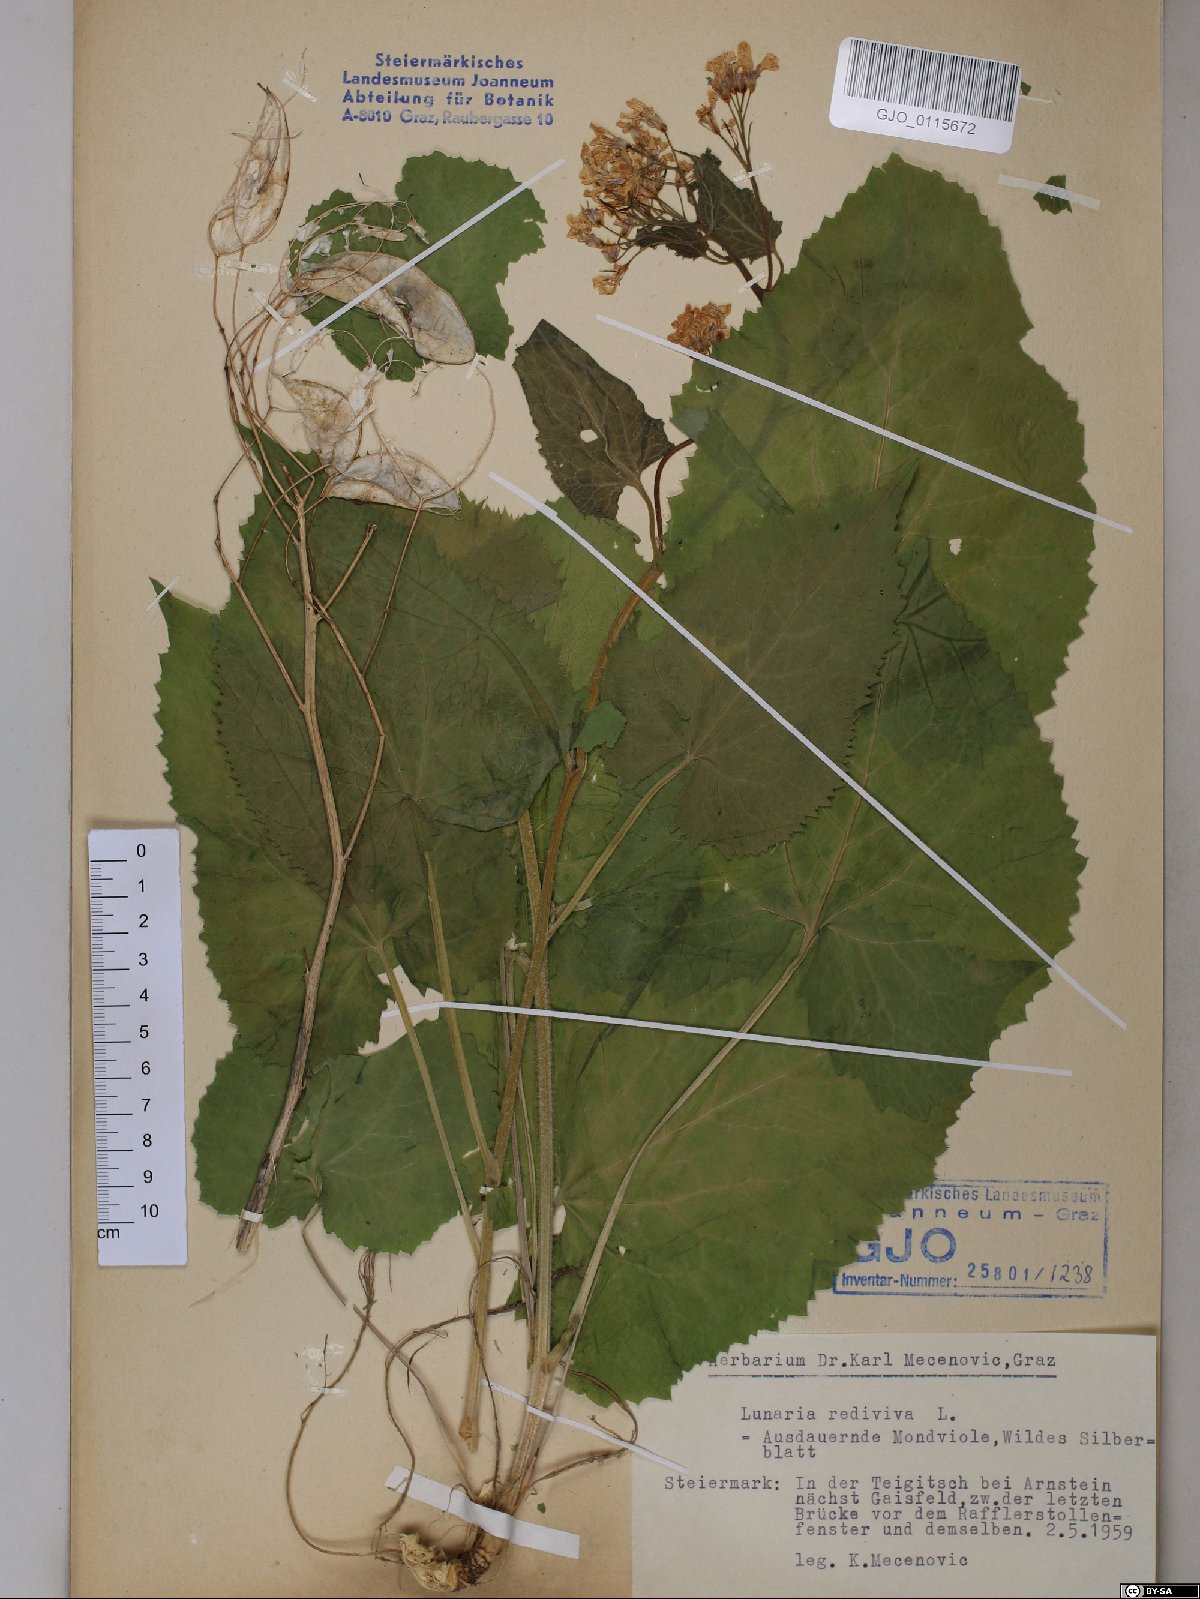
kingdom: Plantae
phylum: Tracheophyta
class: Magnoliopsida
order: Brassicales
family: Brassicaceae
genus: Lunaria
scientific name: Lunaria rediviva
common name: Perennial honesty
